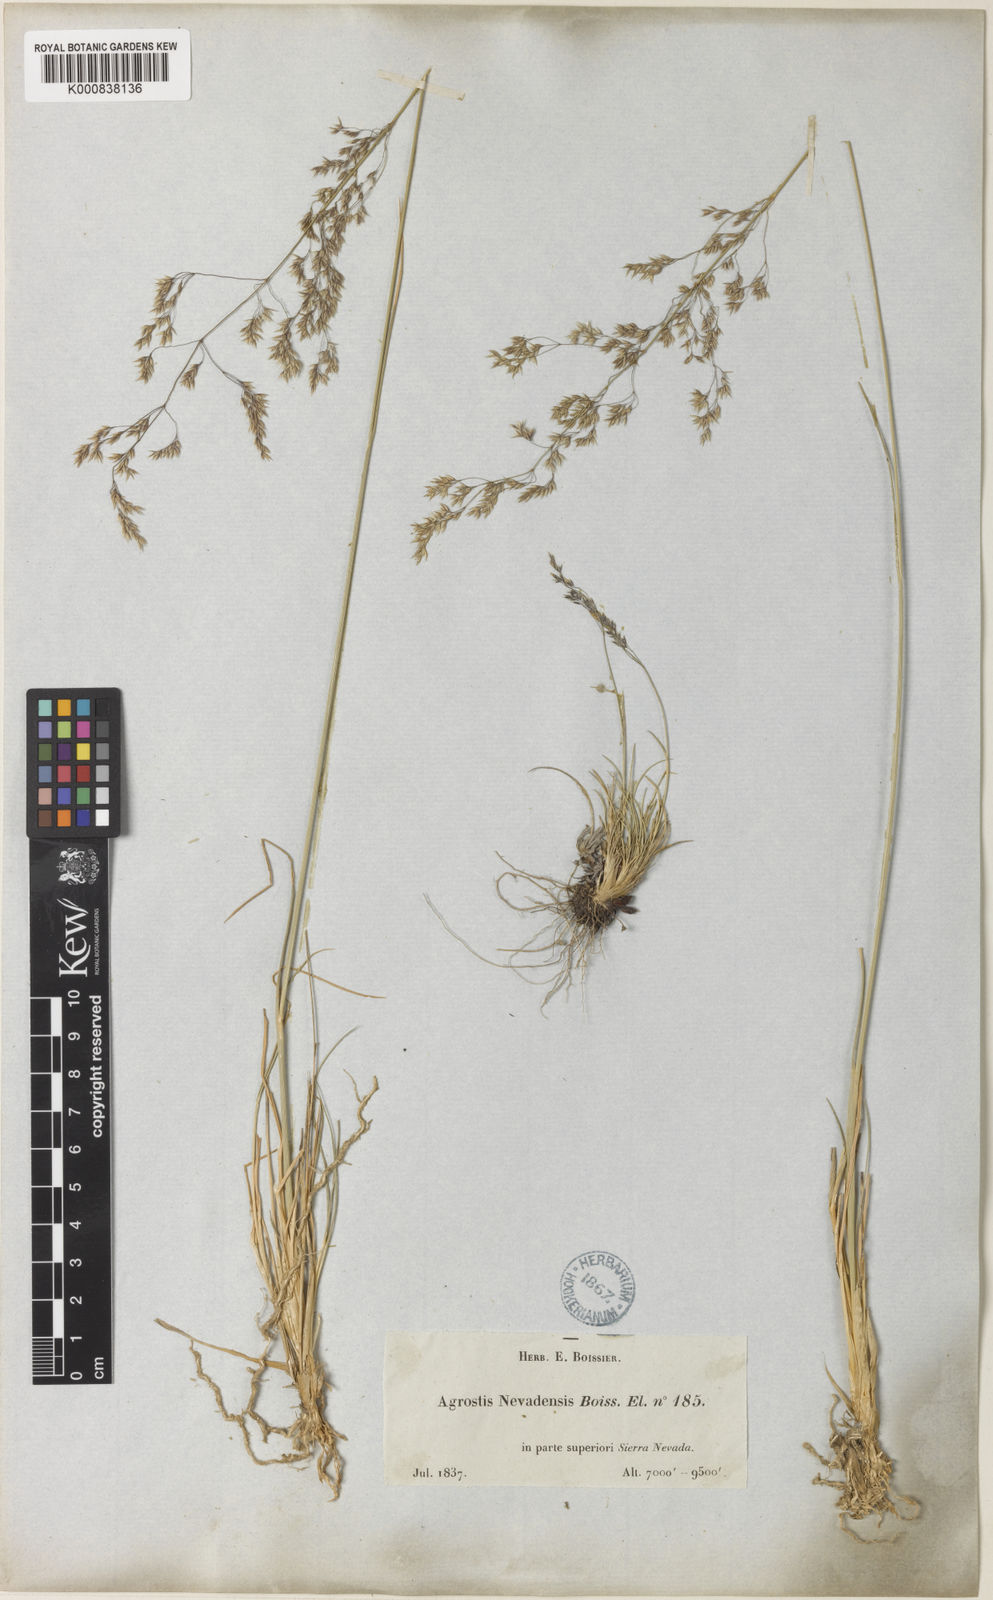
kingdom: Plantae
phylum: Tracheophyta
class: Liliopsida
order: Poales
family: Poaceae
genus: Agrostis
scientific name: Agrostis nevadensis
